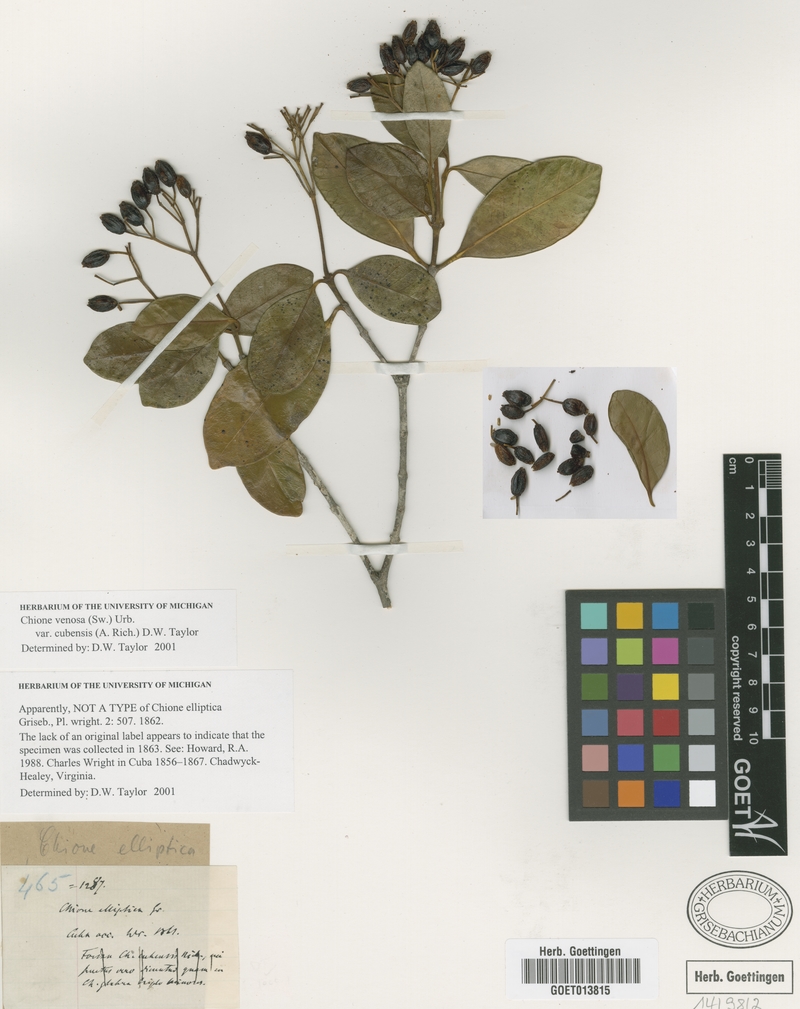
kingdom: Plantae
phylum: Tracheophyta
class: Magnoliopsida
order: Gentianales
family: Rubiaceae
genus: Chione
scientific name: Chione venosa
